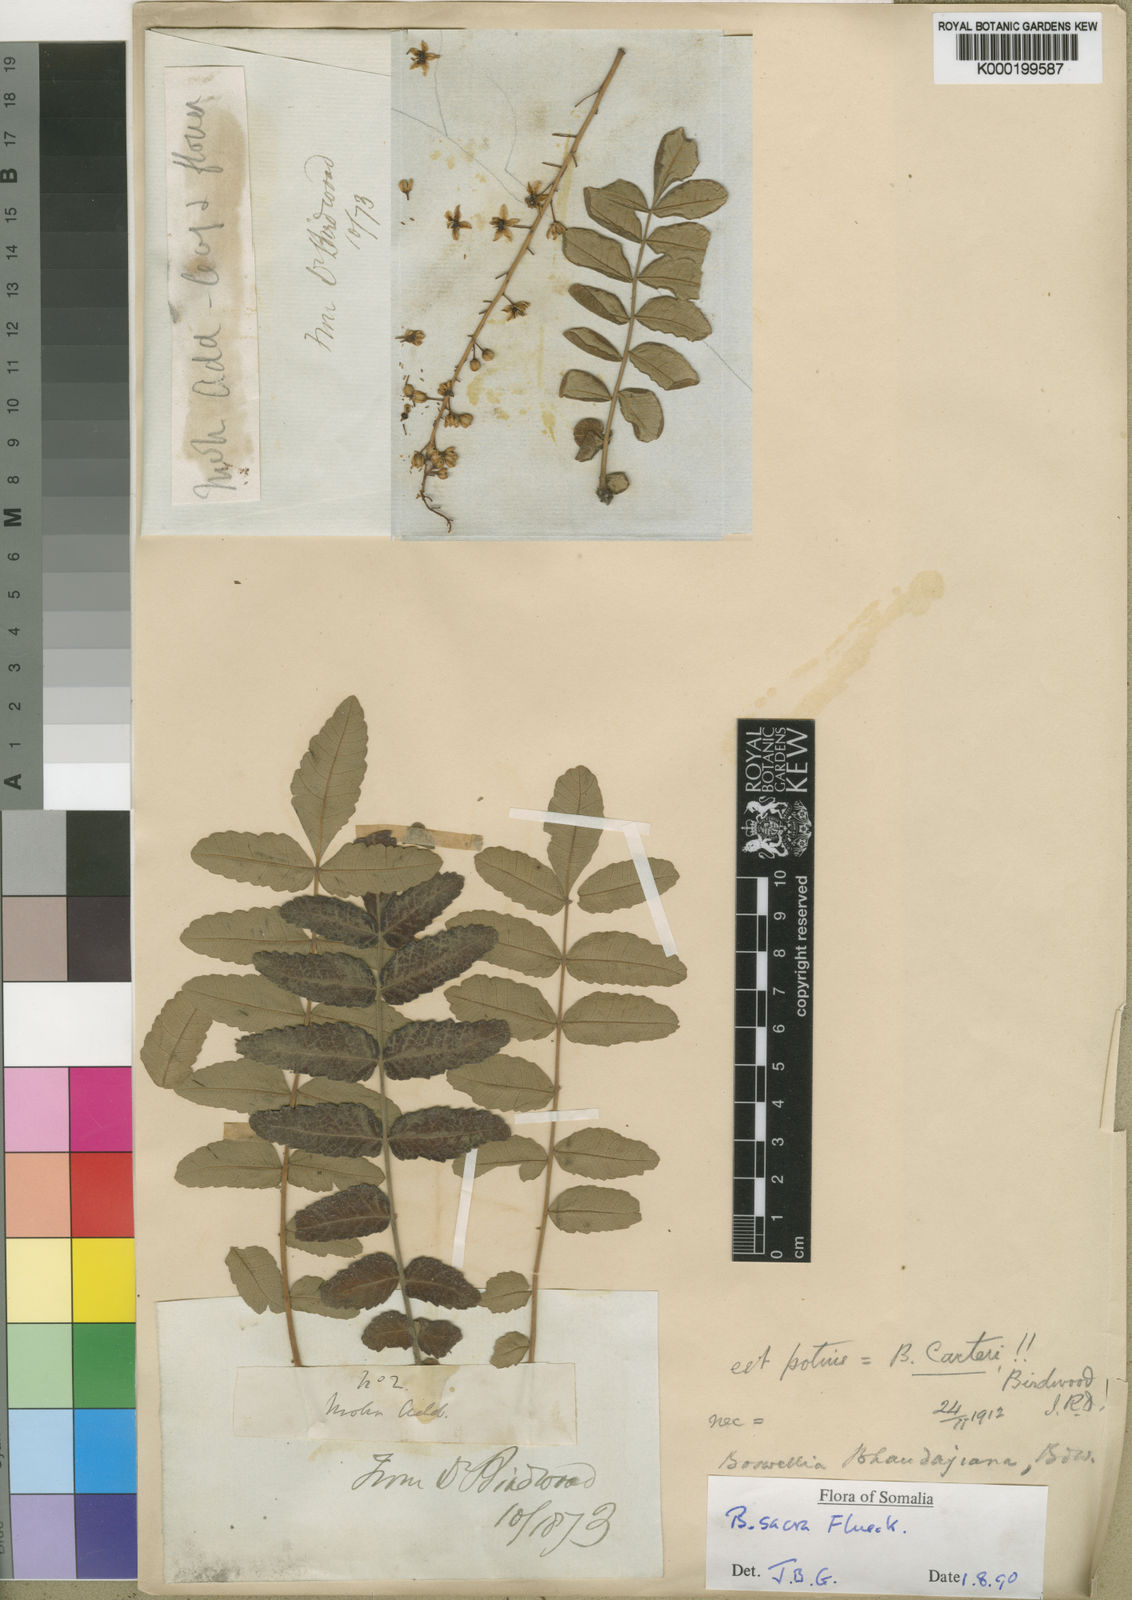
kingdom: Plantae
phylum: Tracheophyta
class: Magnoliopsida
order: Sapindales
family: Burseraceae
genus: Boswellia
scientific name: Boswellia sacra
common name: Olibanum-tree
